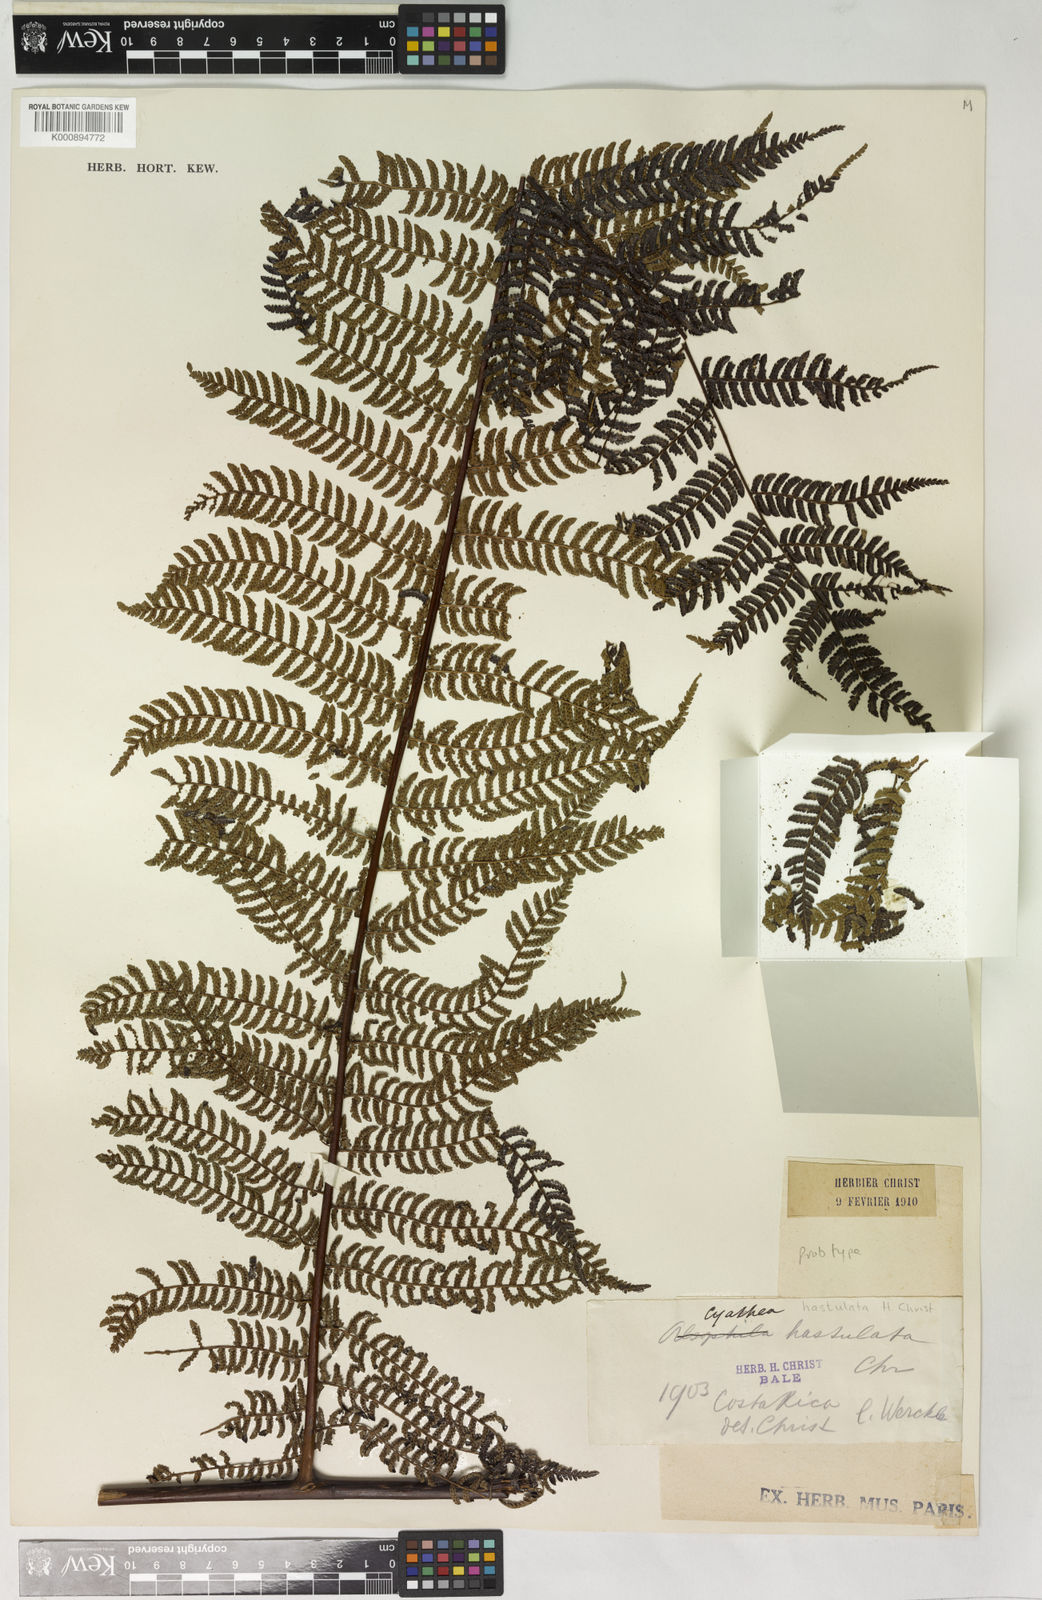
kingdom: Plantae
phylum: Tracheophyta
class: Polypodiopsida
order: Cyatheales
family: Cyatheaceae
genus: Alsophila
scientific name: Alsophila
